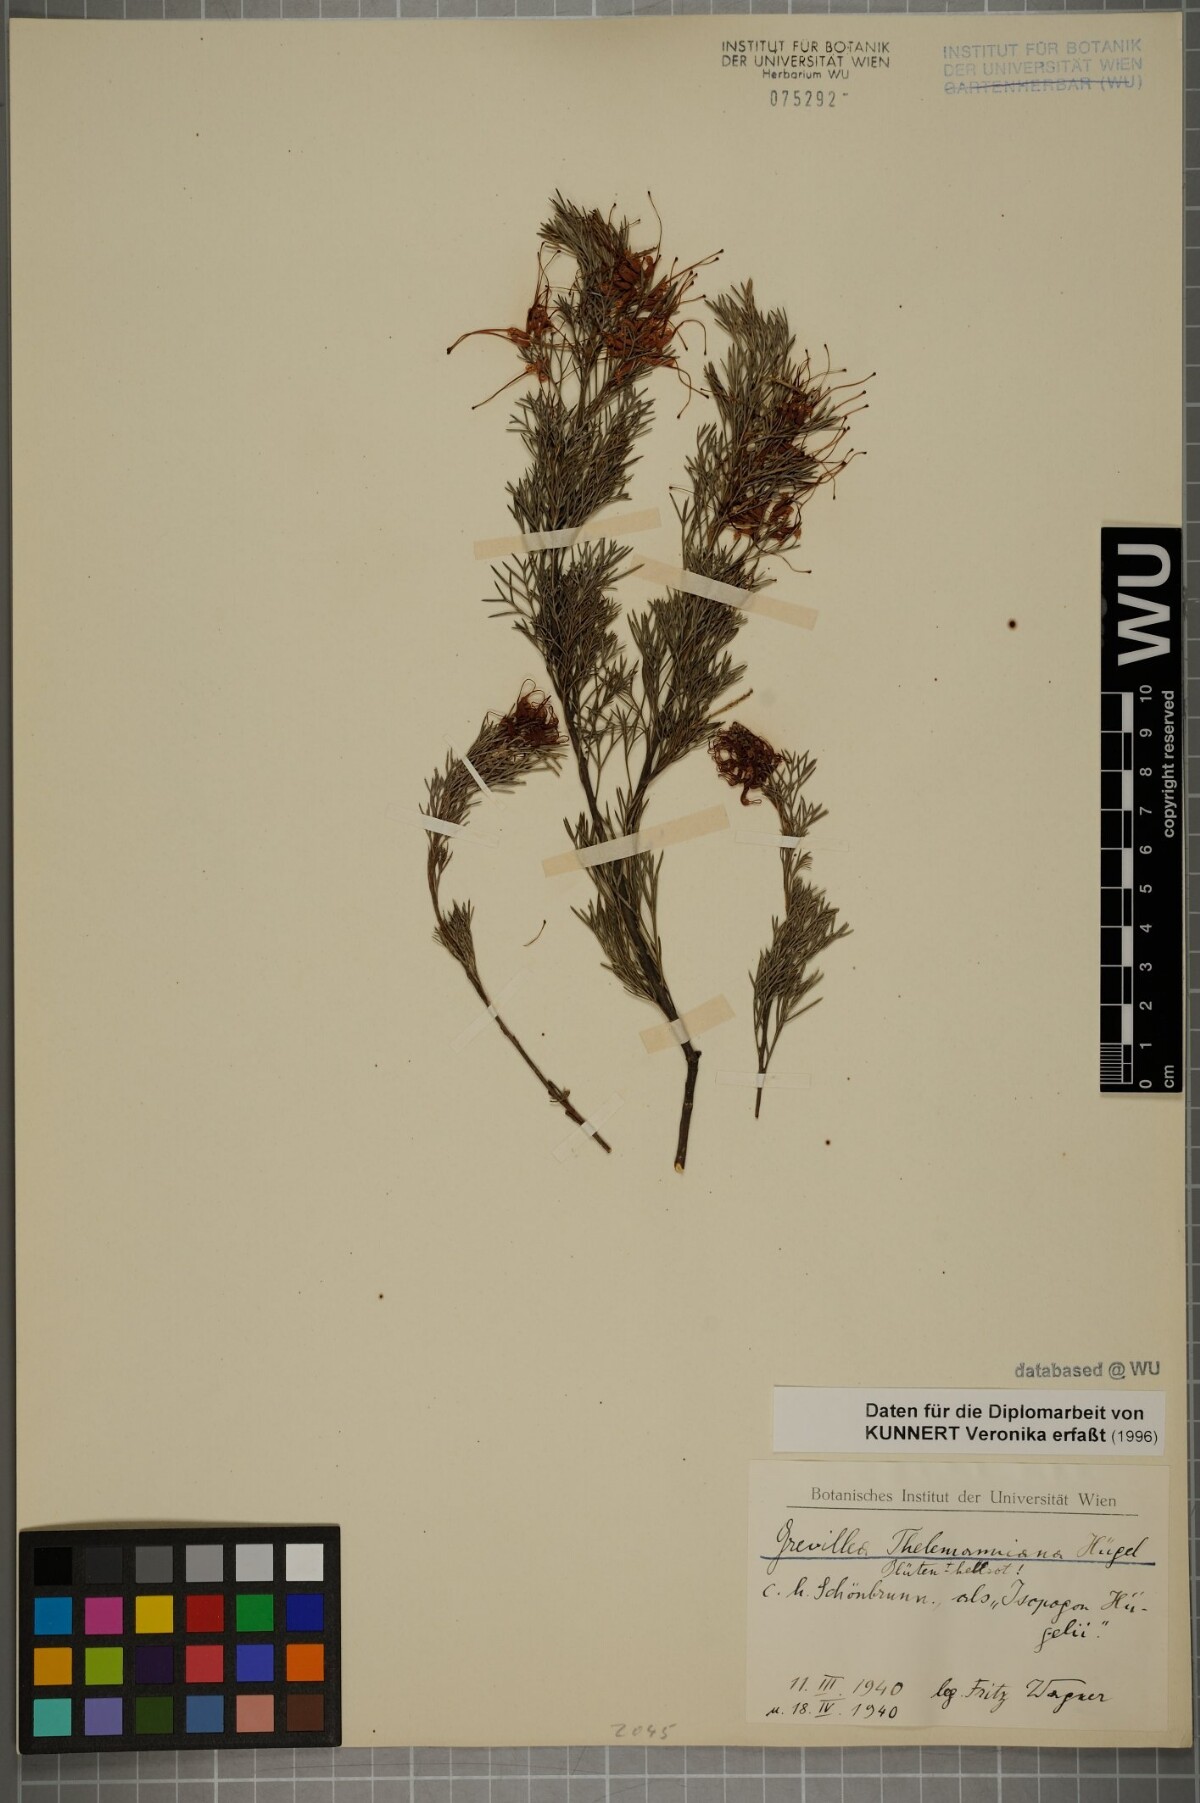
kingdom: Plantae
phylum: Tracheophyta
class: Magnoliopsida
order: Proteales
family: Proteaceae
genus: Grevillea
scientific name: Grevillea thelemanniana
